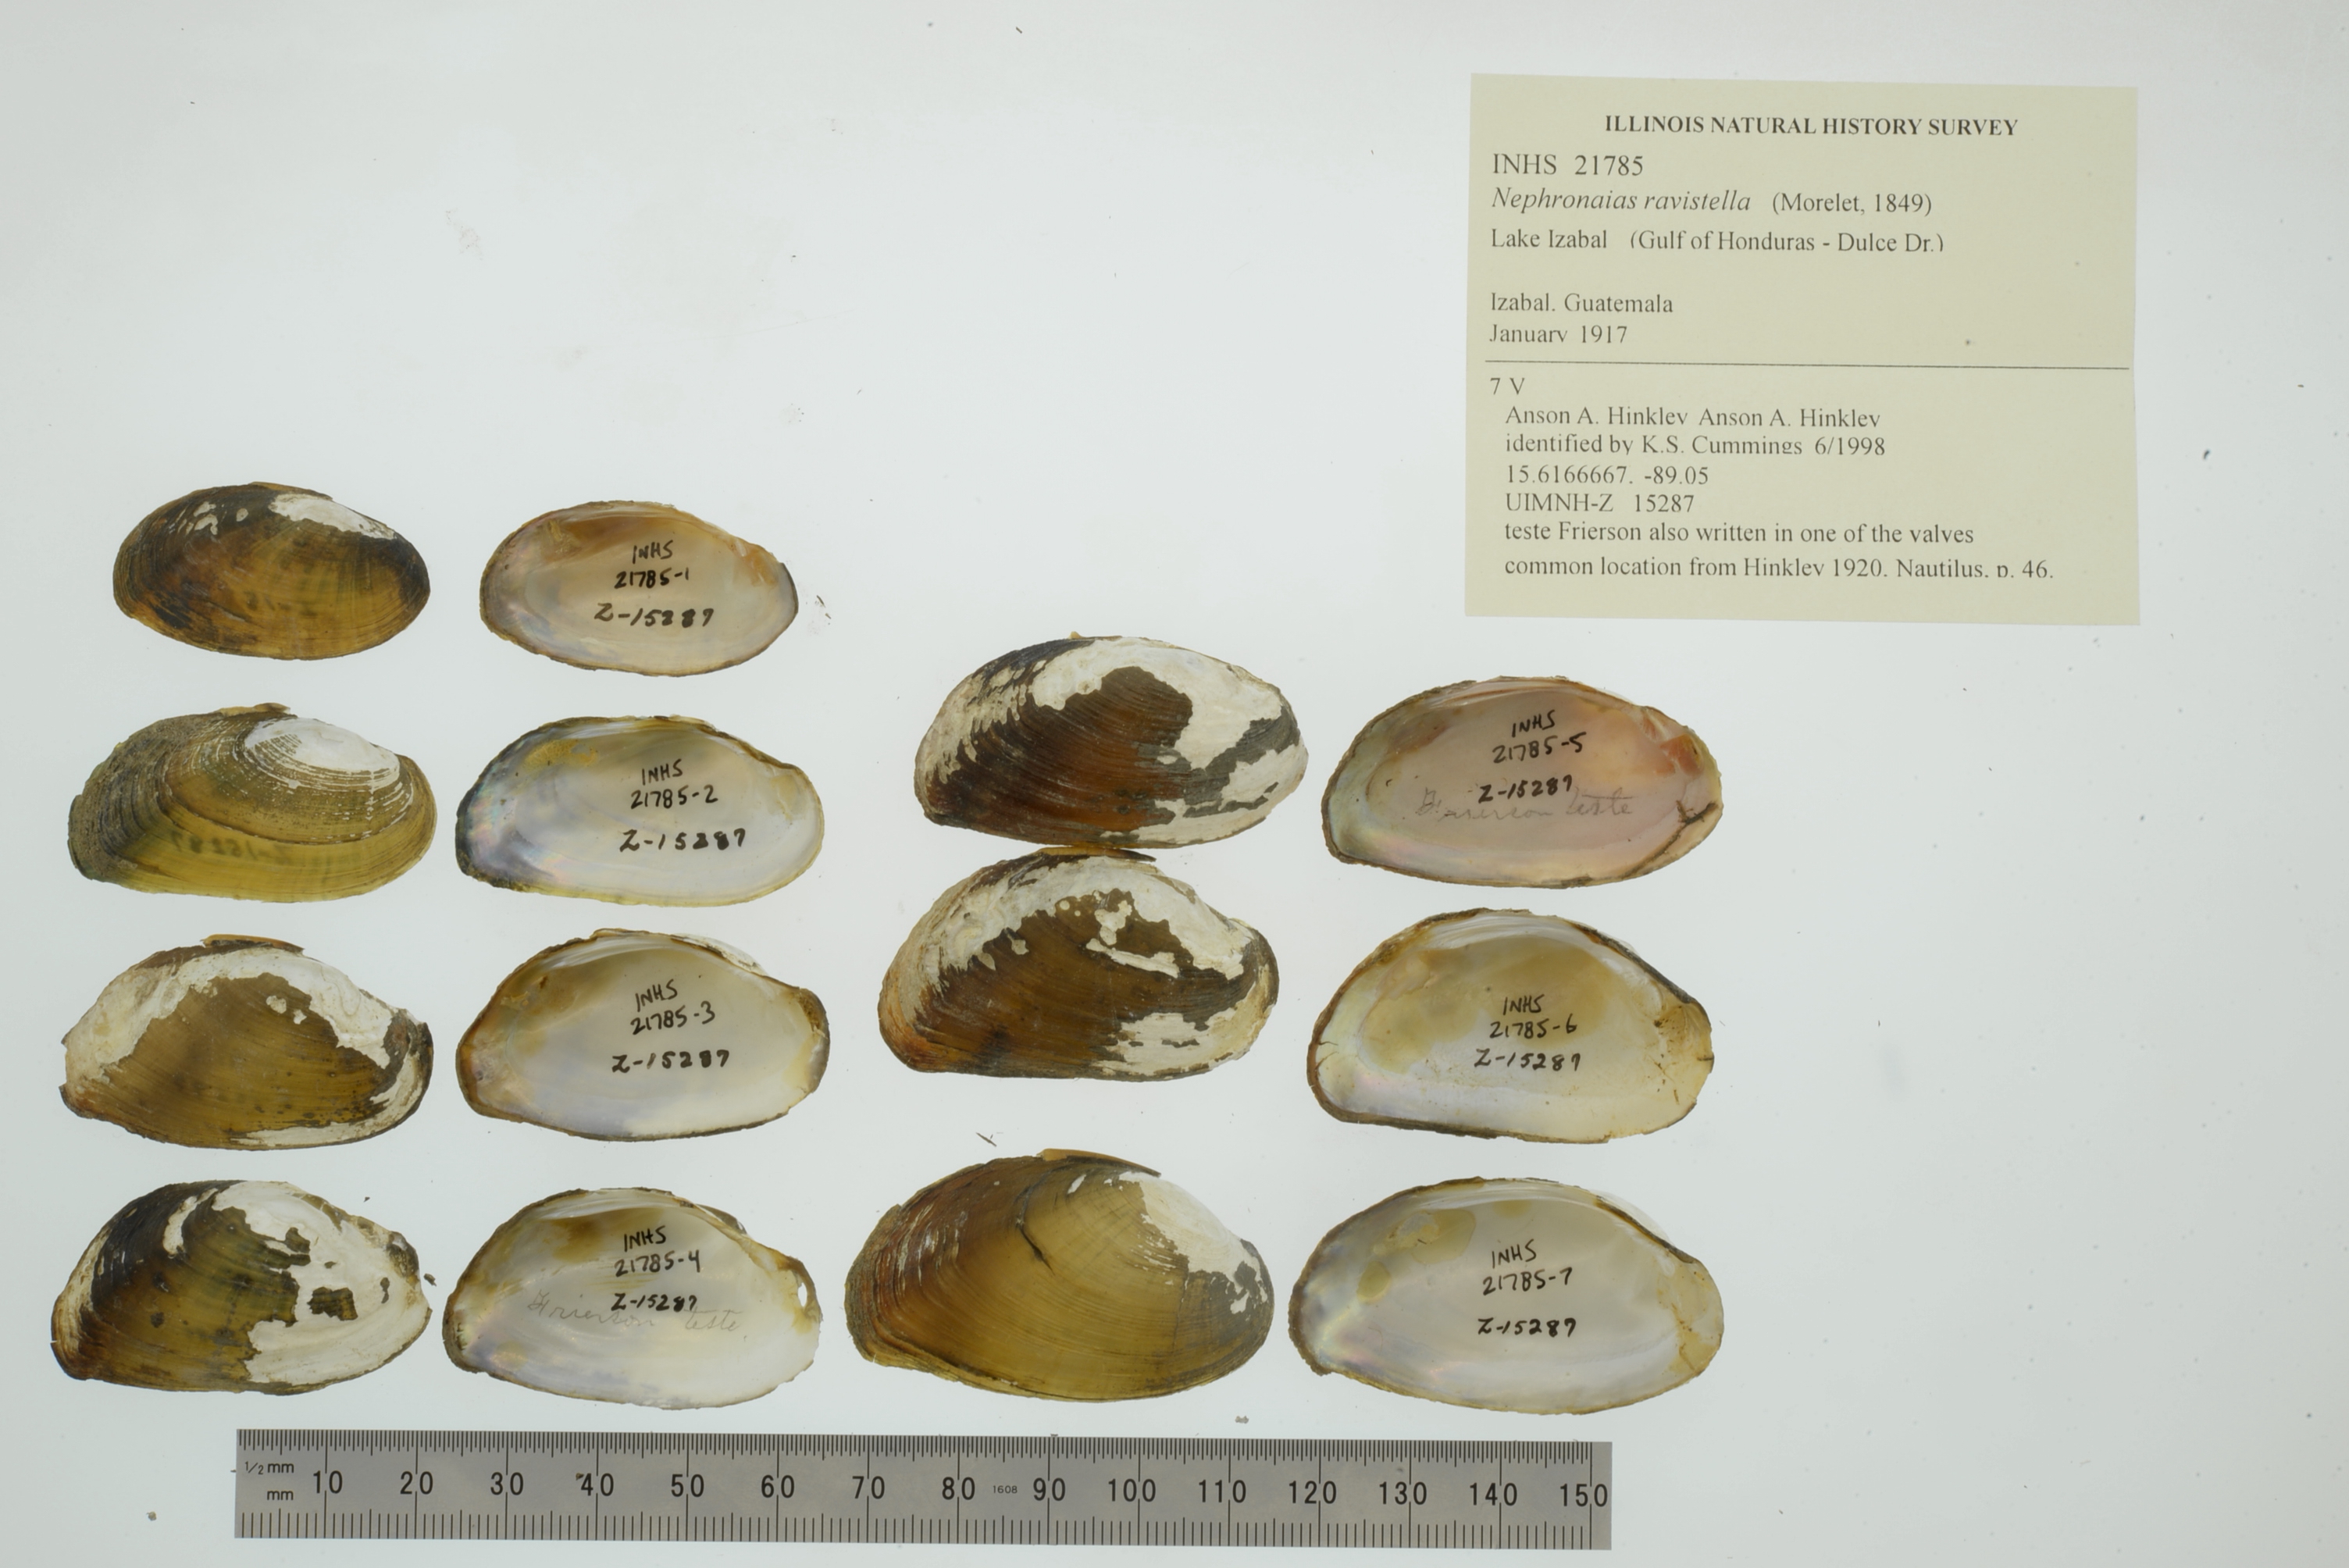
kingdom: Animalia
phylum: Mollusca
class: Bivalvia
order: Unionida
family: Unionidae
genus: Nephronaias
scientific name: Nephronaias ravistella
